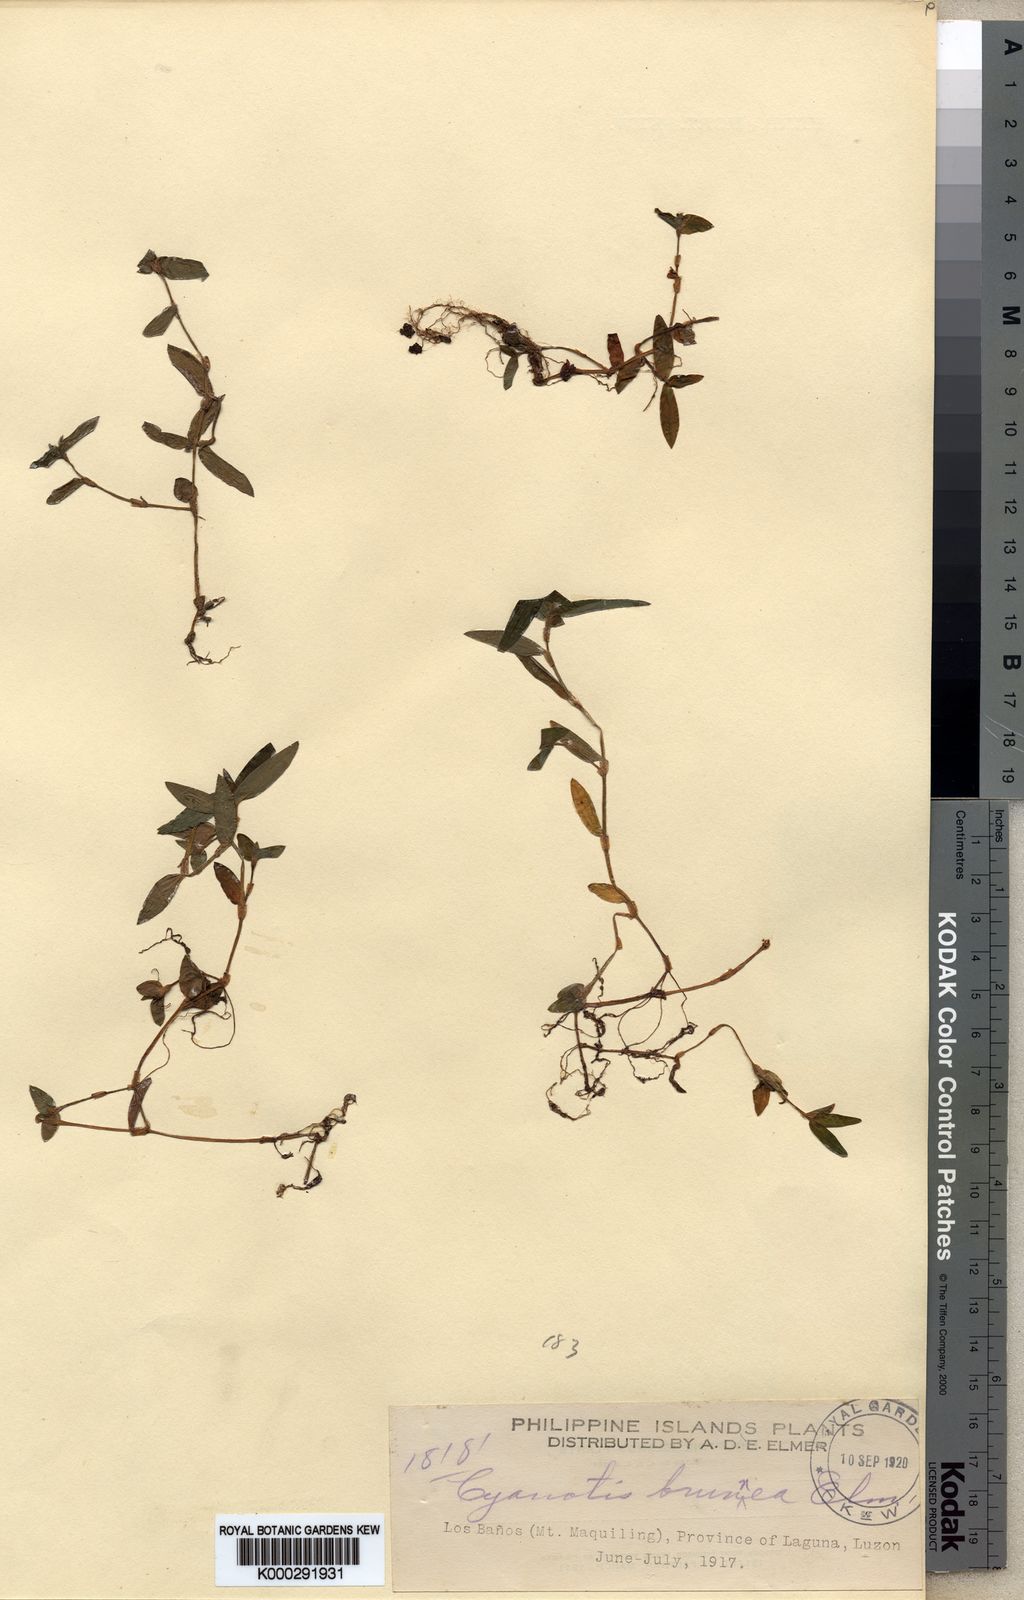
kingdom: Plantae
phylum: Tracheophyta
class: Liliopsida
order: Commelinales
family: Commelinaceae
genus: Cyanotis
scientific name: Cyanotis moluccana
